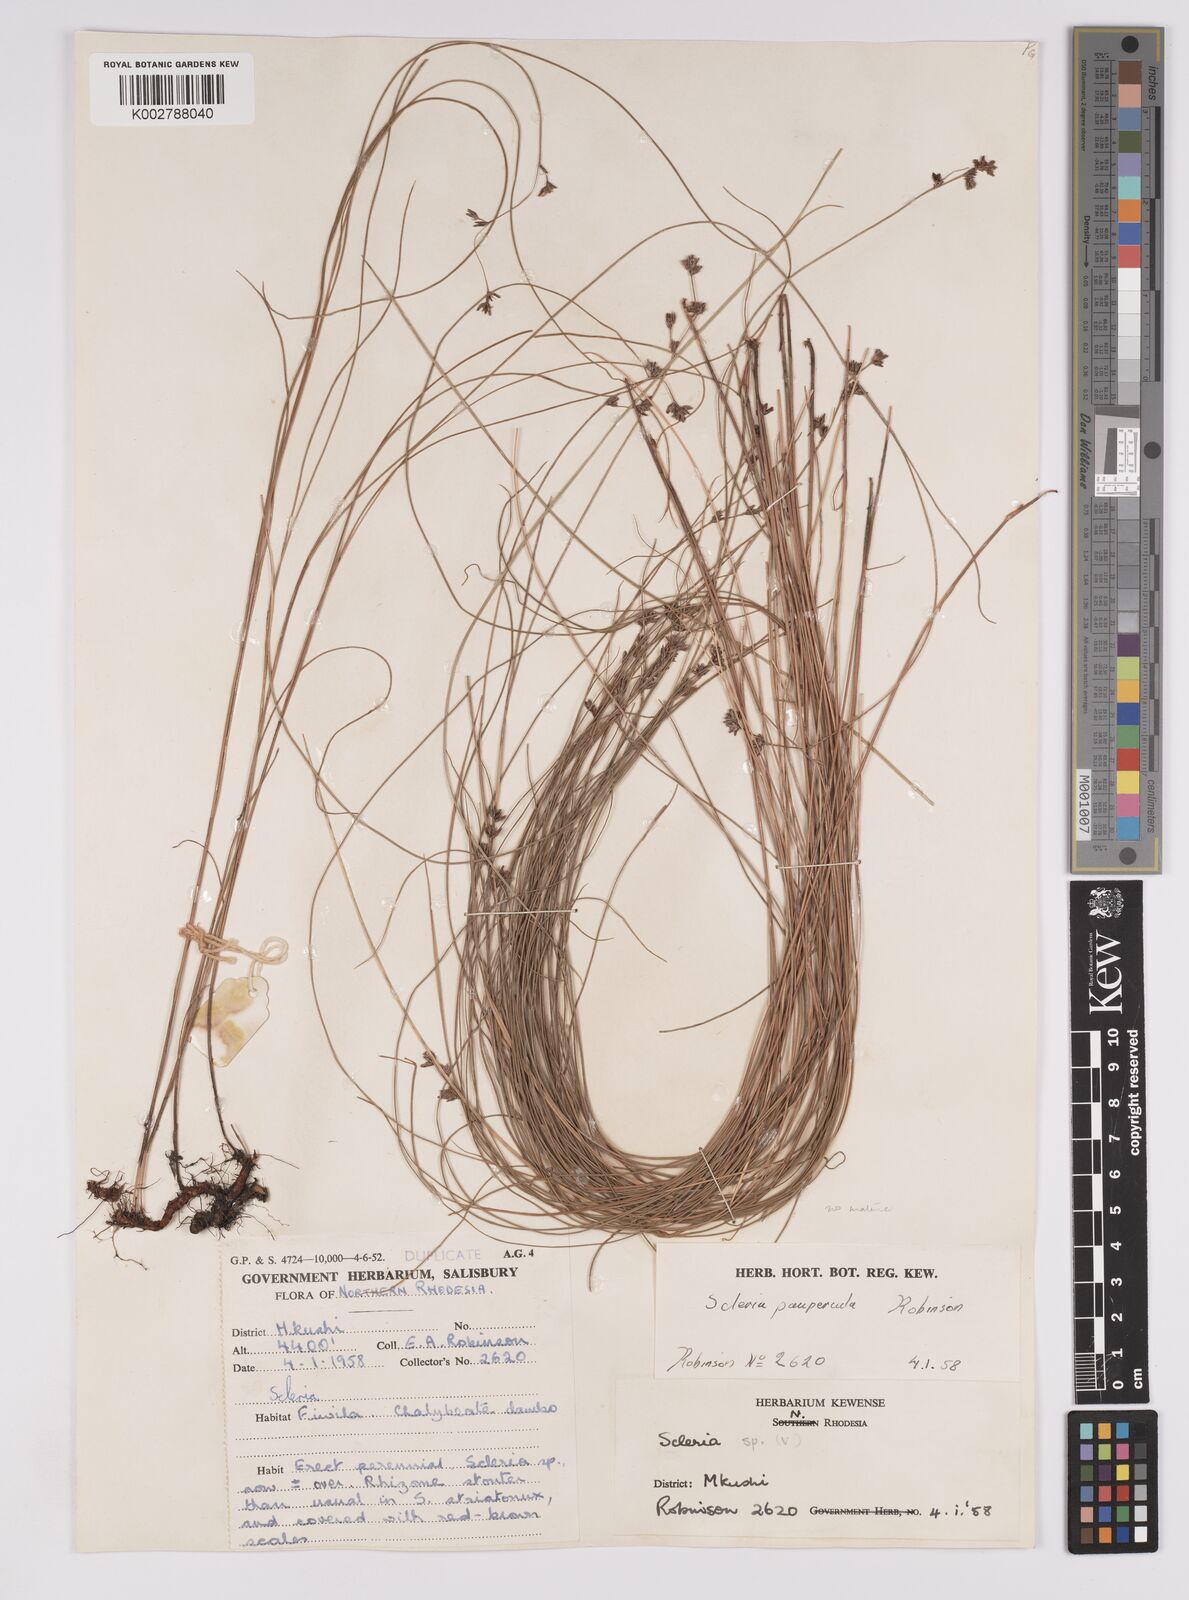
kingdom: Plantae
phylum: Tracheophyta
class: Liliopsida
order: Poales
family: Cyperaceae
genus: Scleria
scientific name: Scleria paupercula
